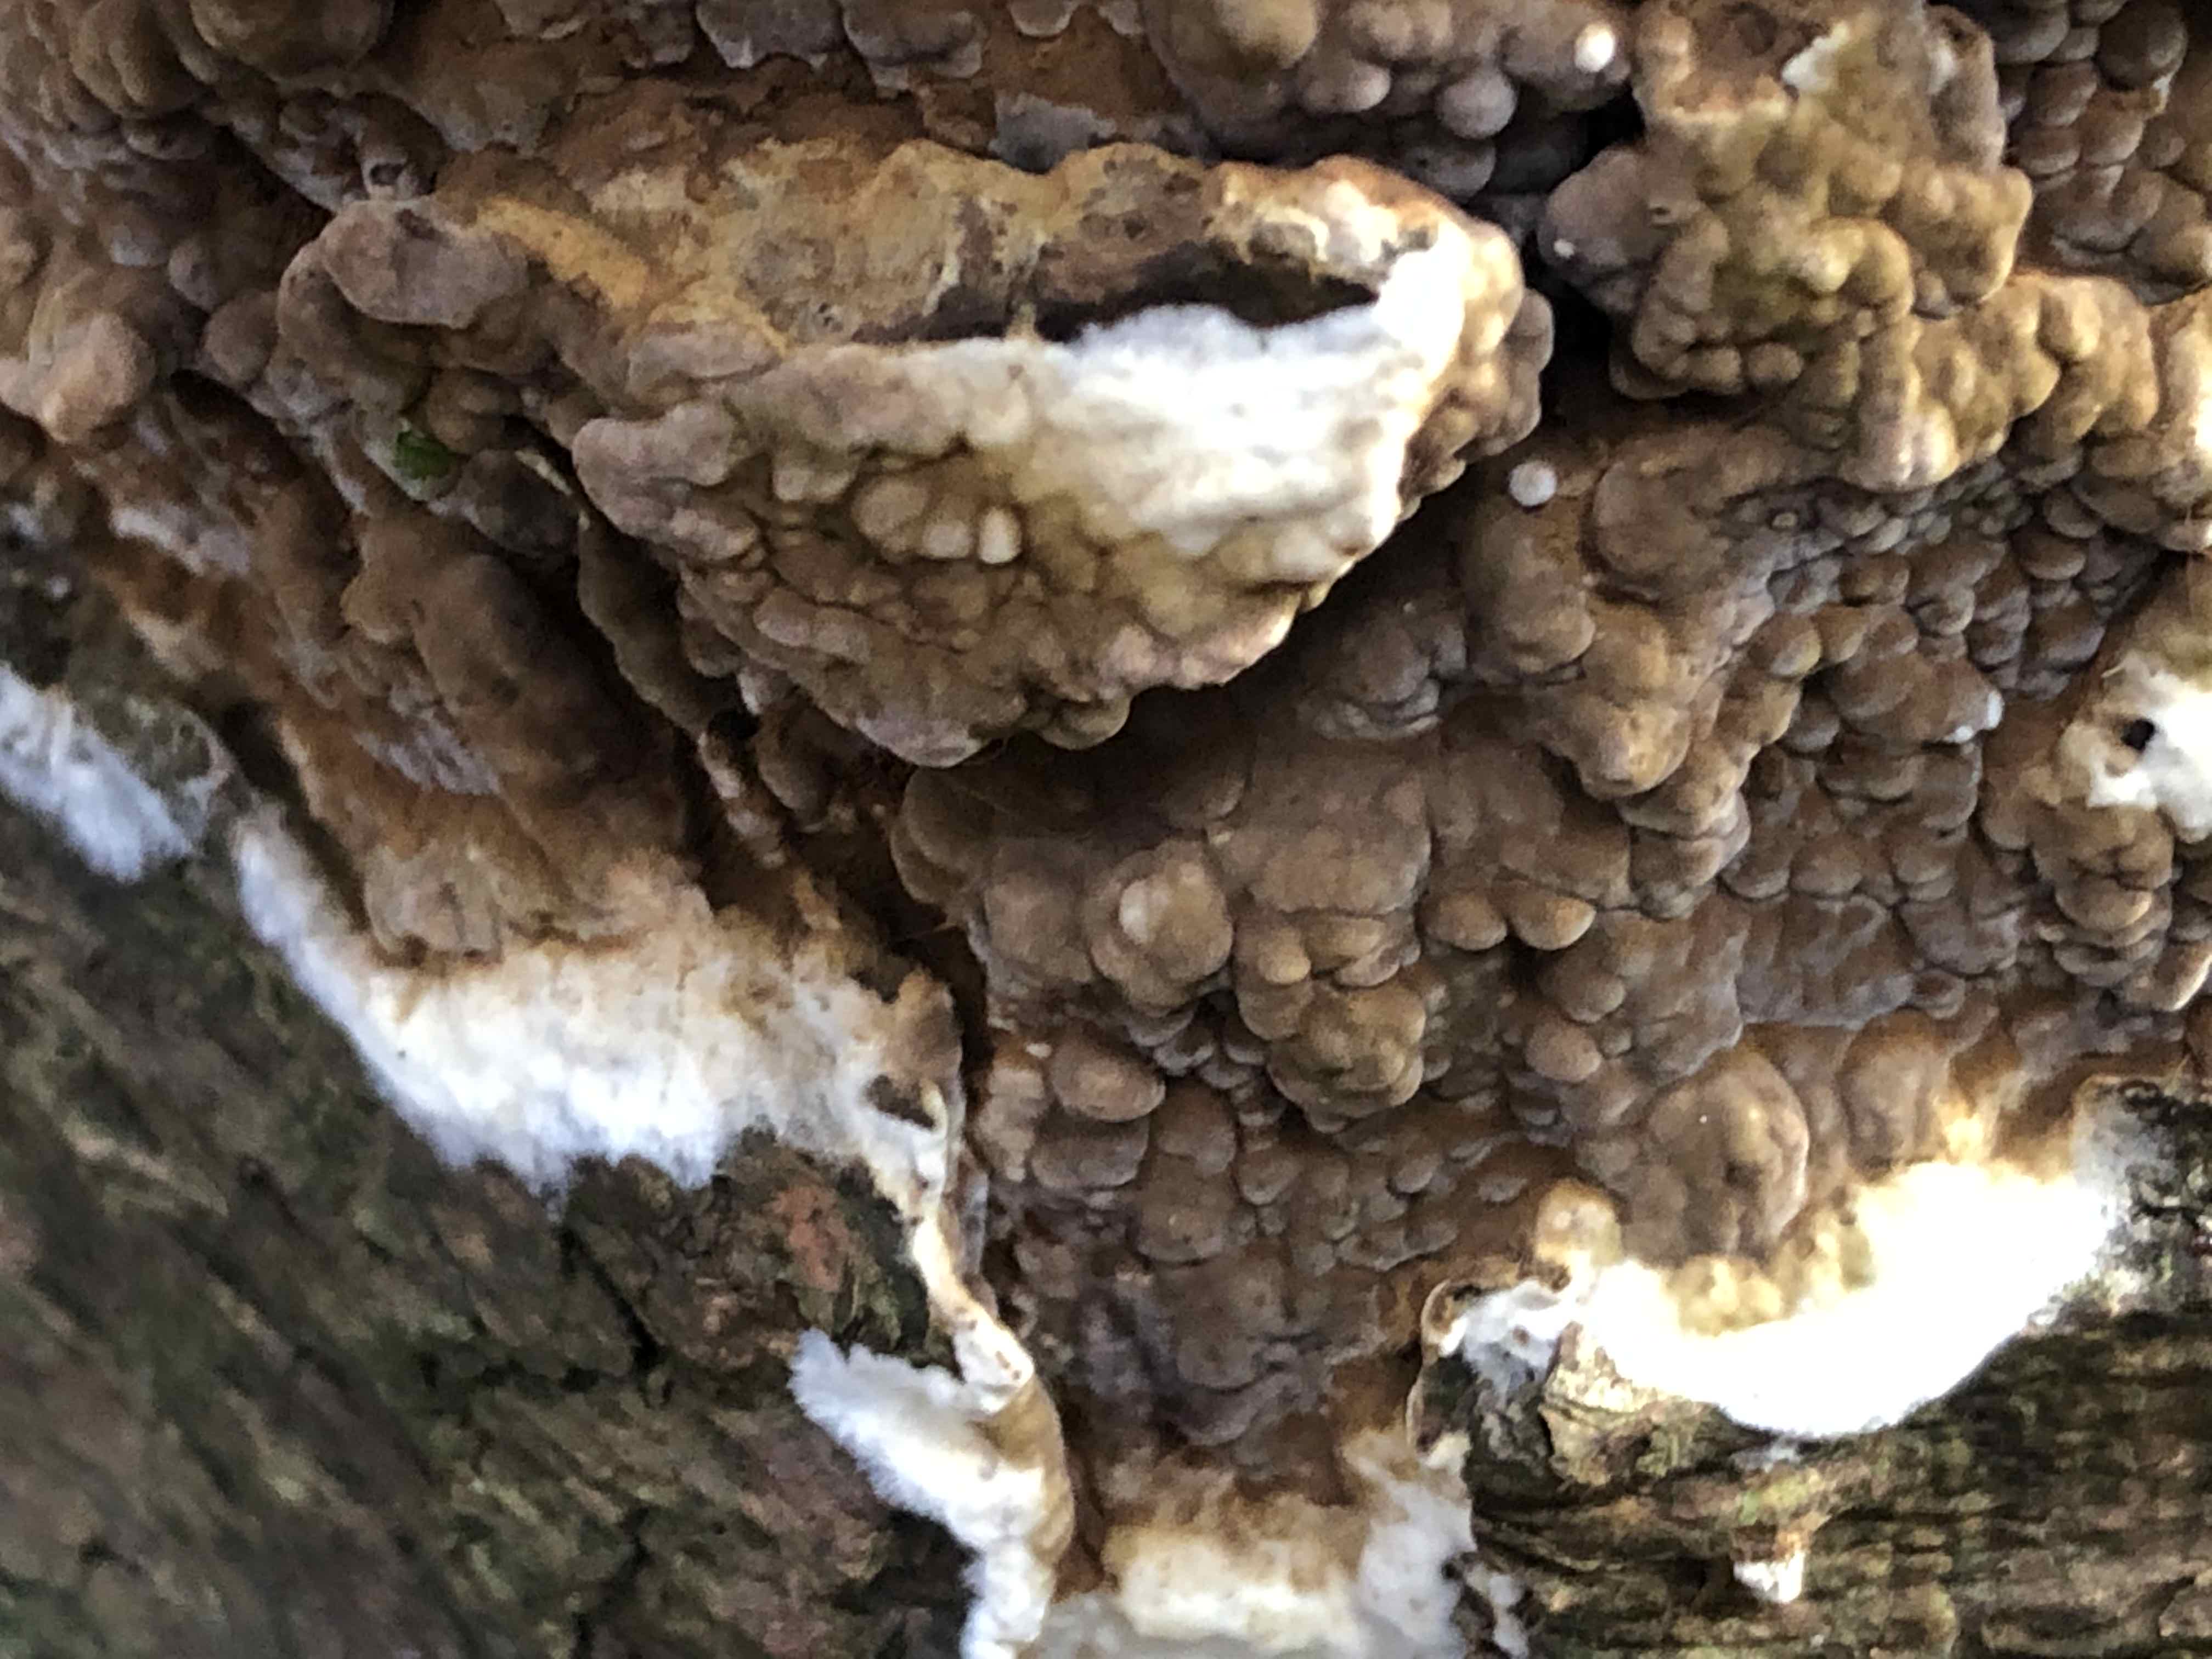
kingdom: Fungi
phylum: Basidiomycota
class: Agaricomycetes
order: Boletales
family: Coniophoraceae
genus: Coniophora
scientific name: Coniophora puteana
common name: gul tømmersvamp
